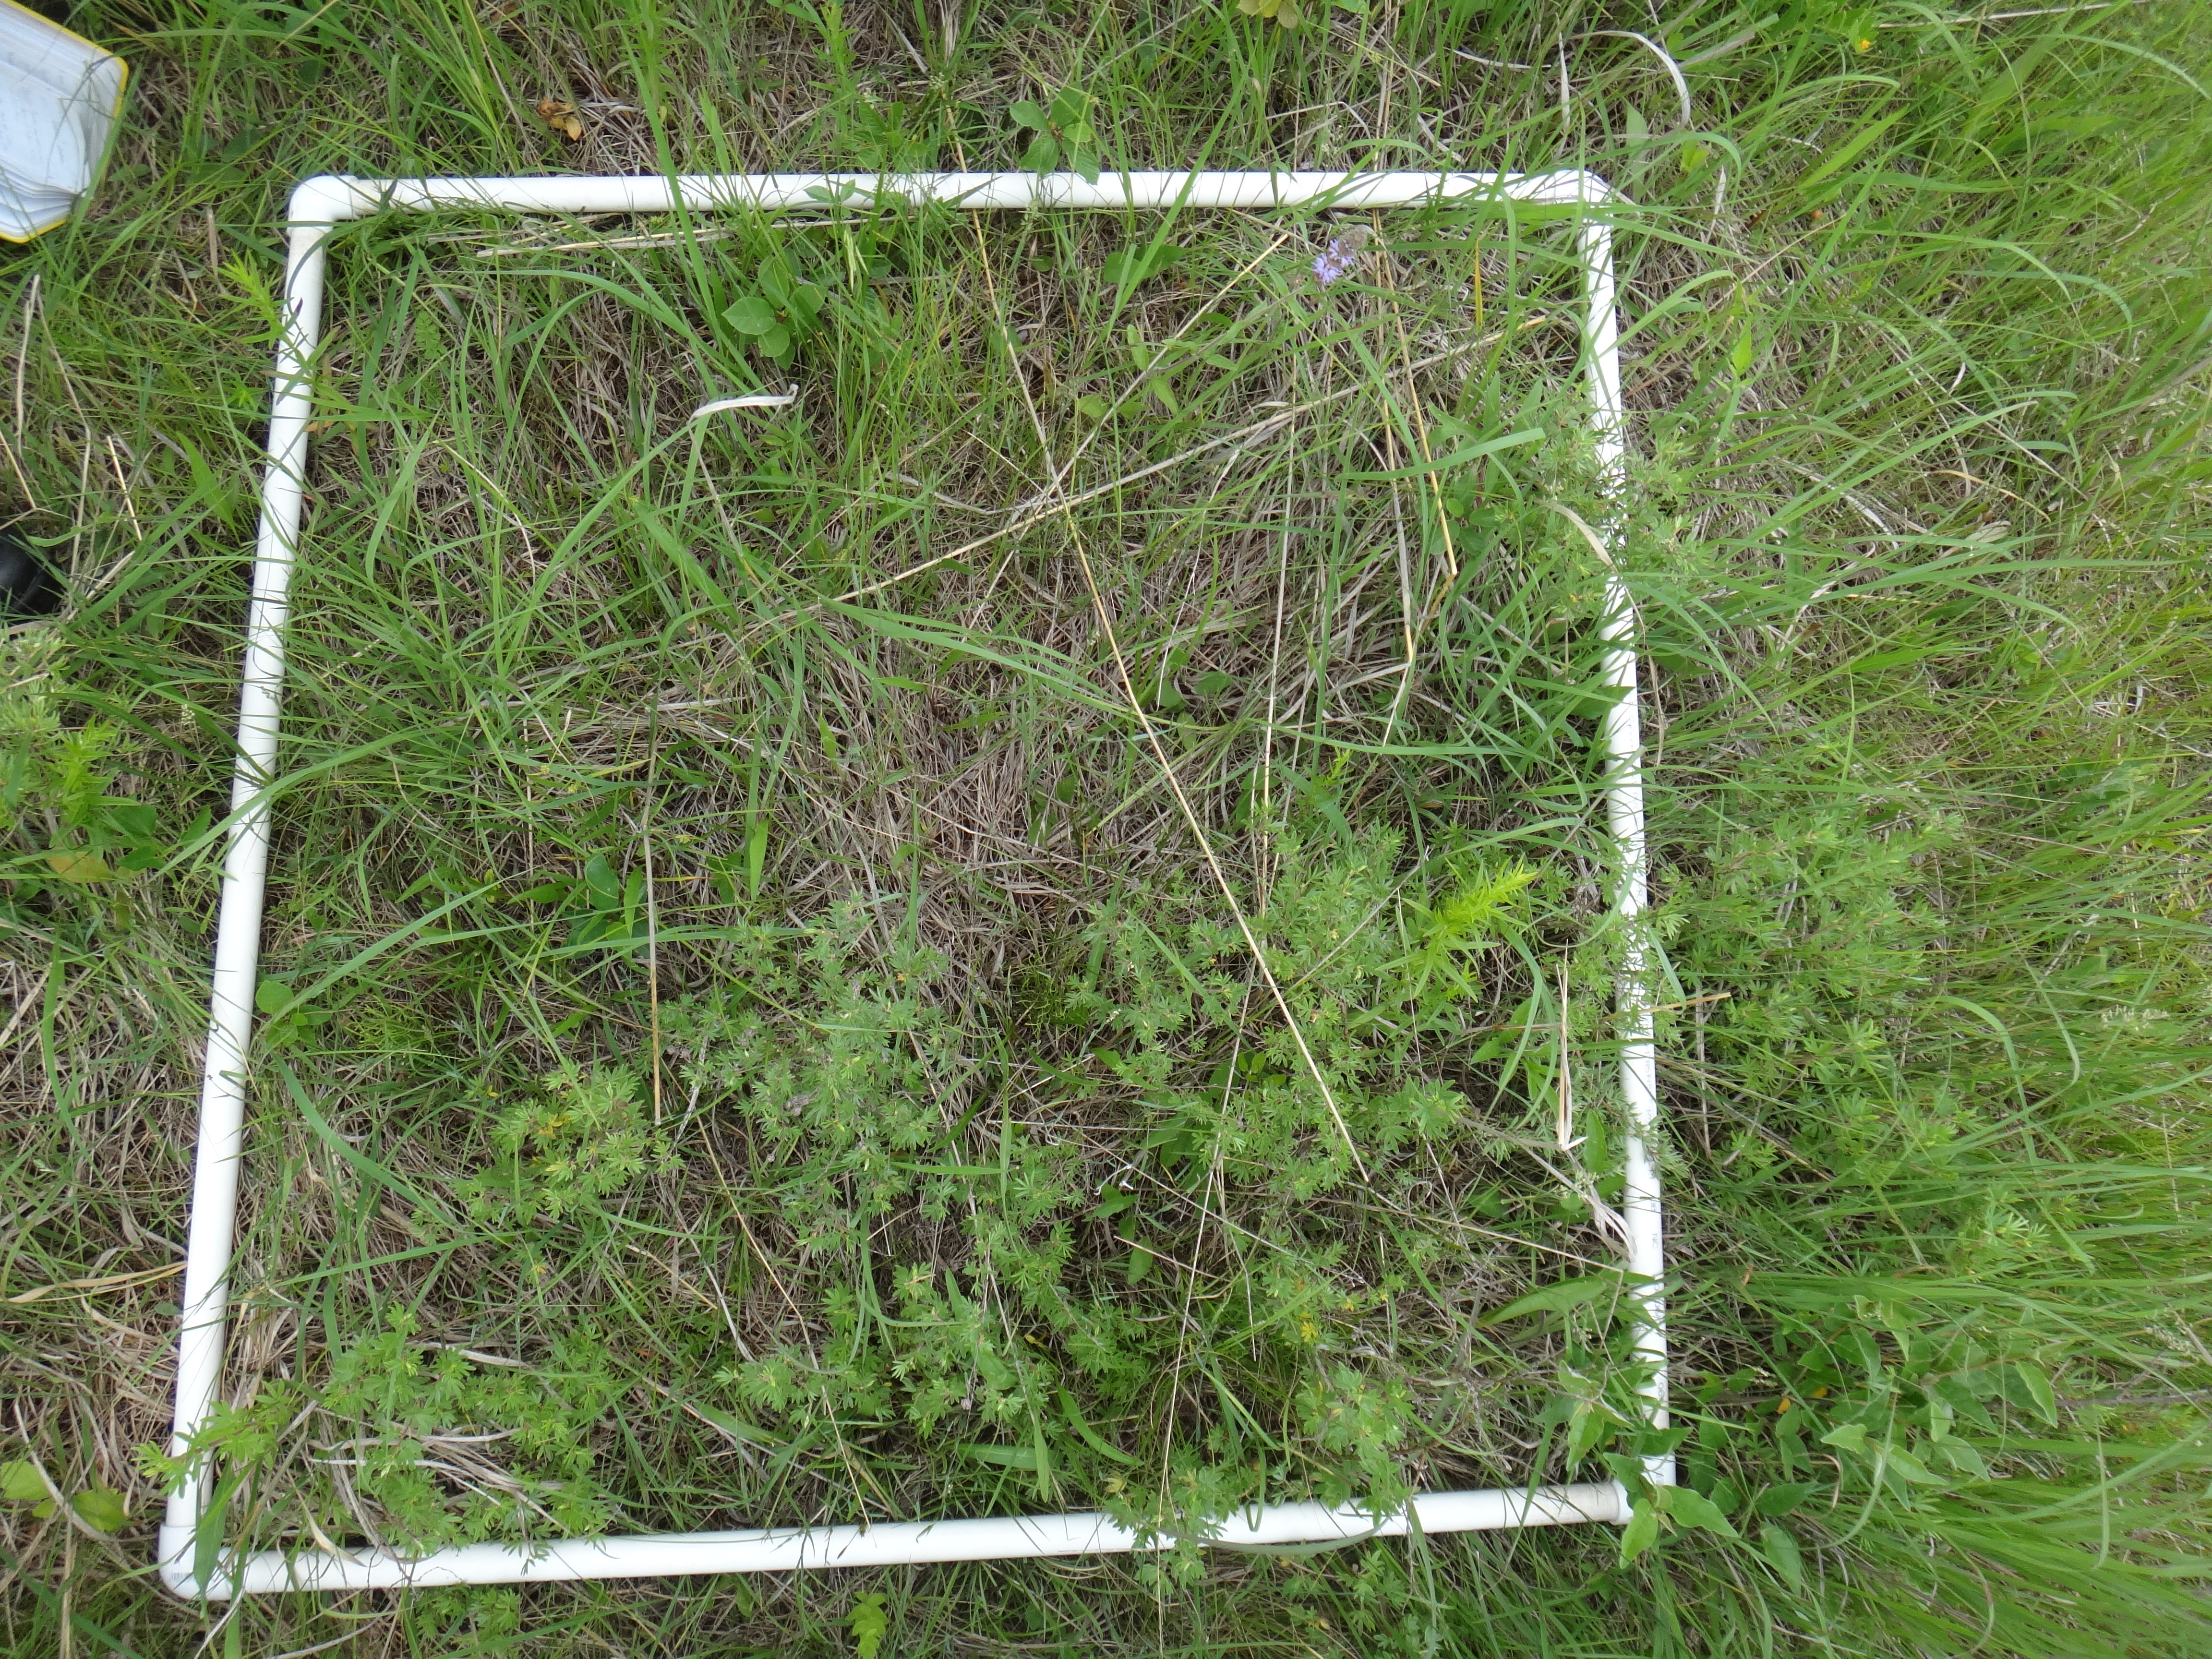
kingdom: Plantae
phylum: Tracheophyta
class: Magnoliopsida
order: Asterales
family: Asteraceae
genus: Rudbeckia
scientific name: Rudbeckia hirta
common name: Black-eyed-susan
